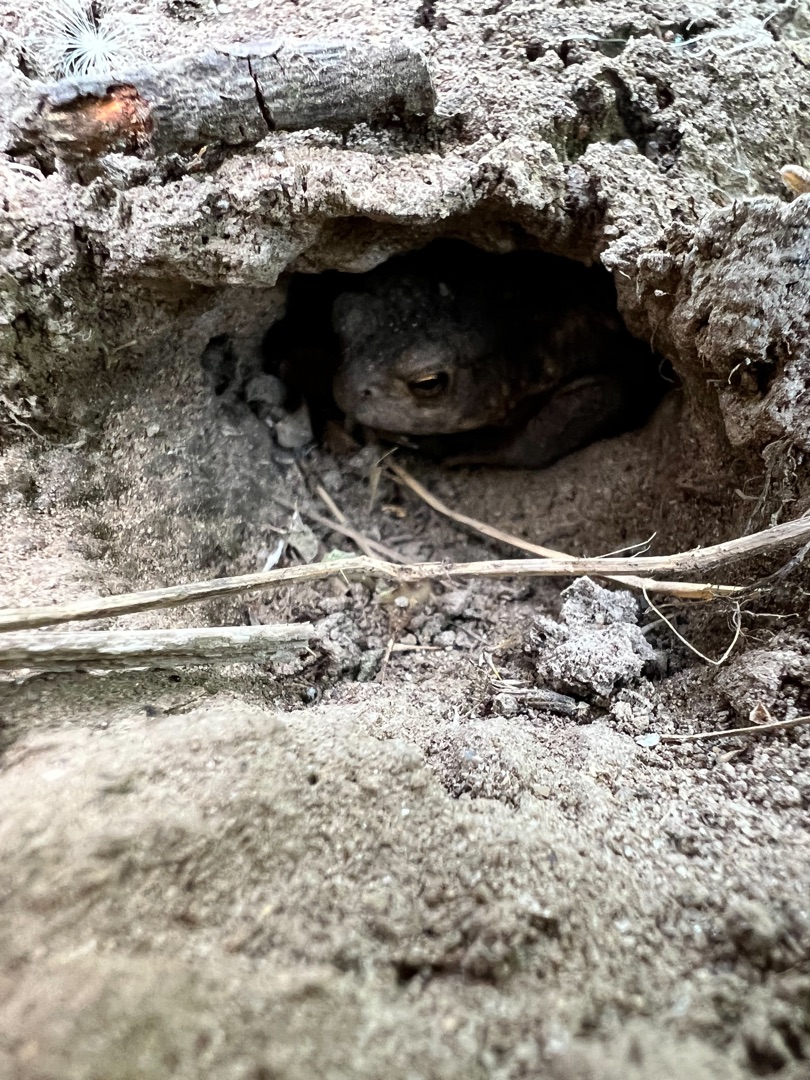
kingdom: Animalia
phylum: Chordata
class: Amphibia
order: Anura
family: Bufonidae
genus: Bufo
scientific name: Bufo bufo
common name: Skrubtudse
